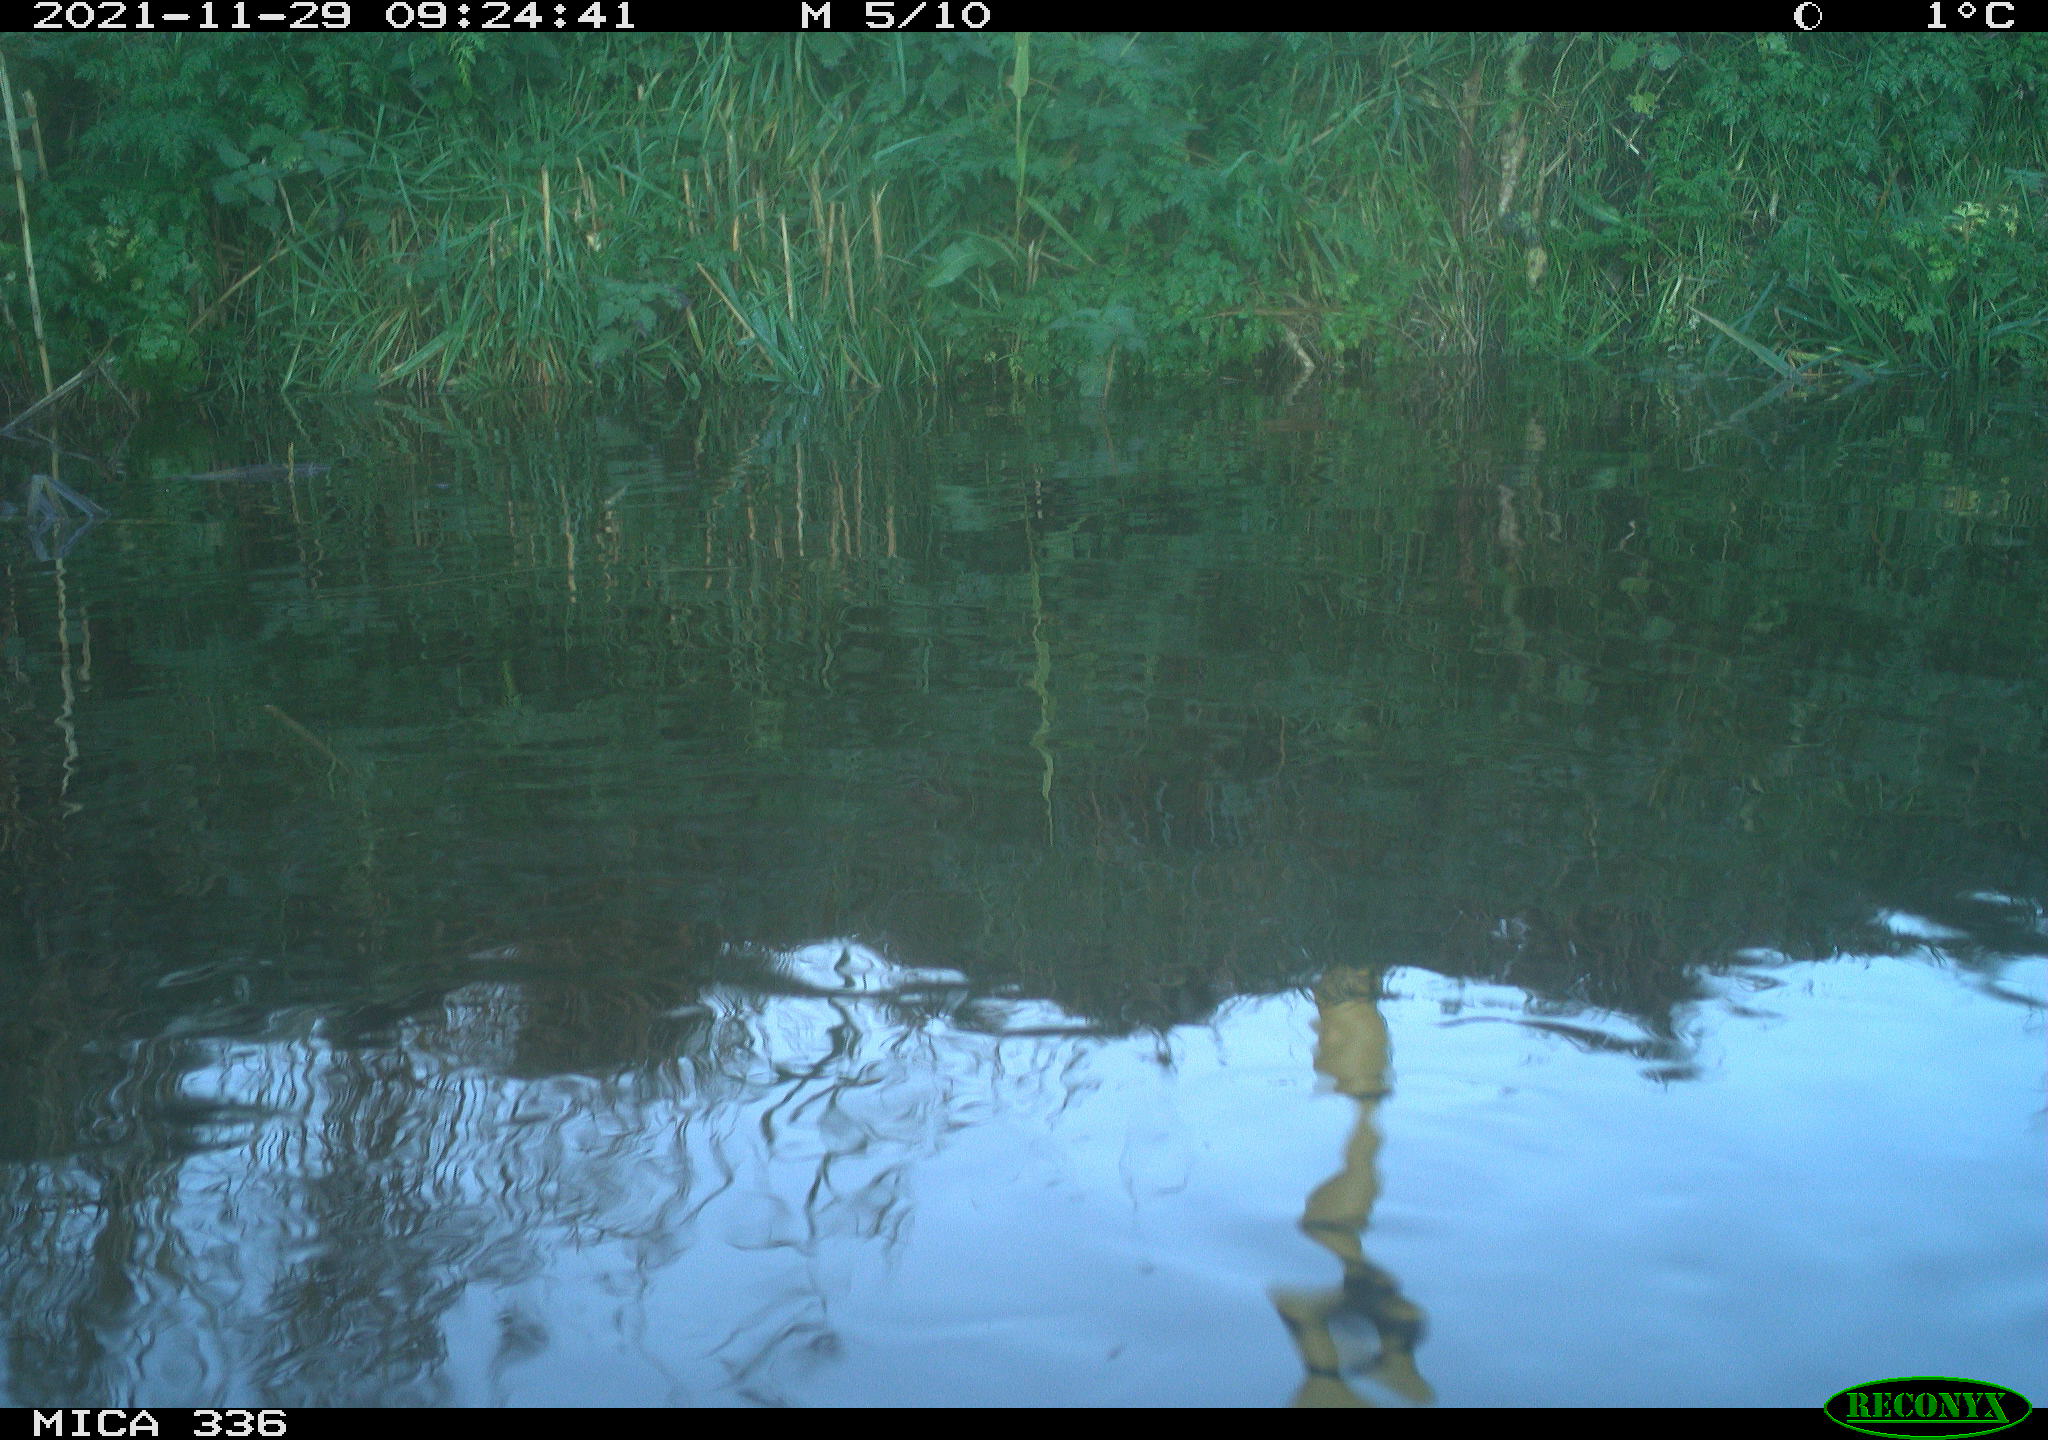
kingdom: Animalia
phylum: Chordata
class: Aves
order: Gruiformes
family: Rallidae
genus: Gallinula
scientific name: Gallinula chloropus
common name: Common moorhen
